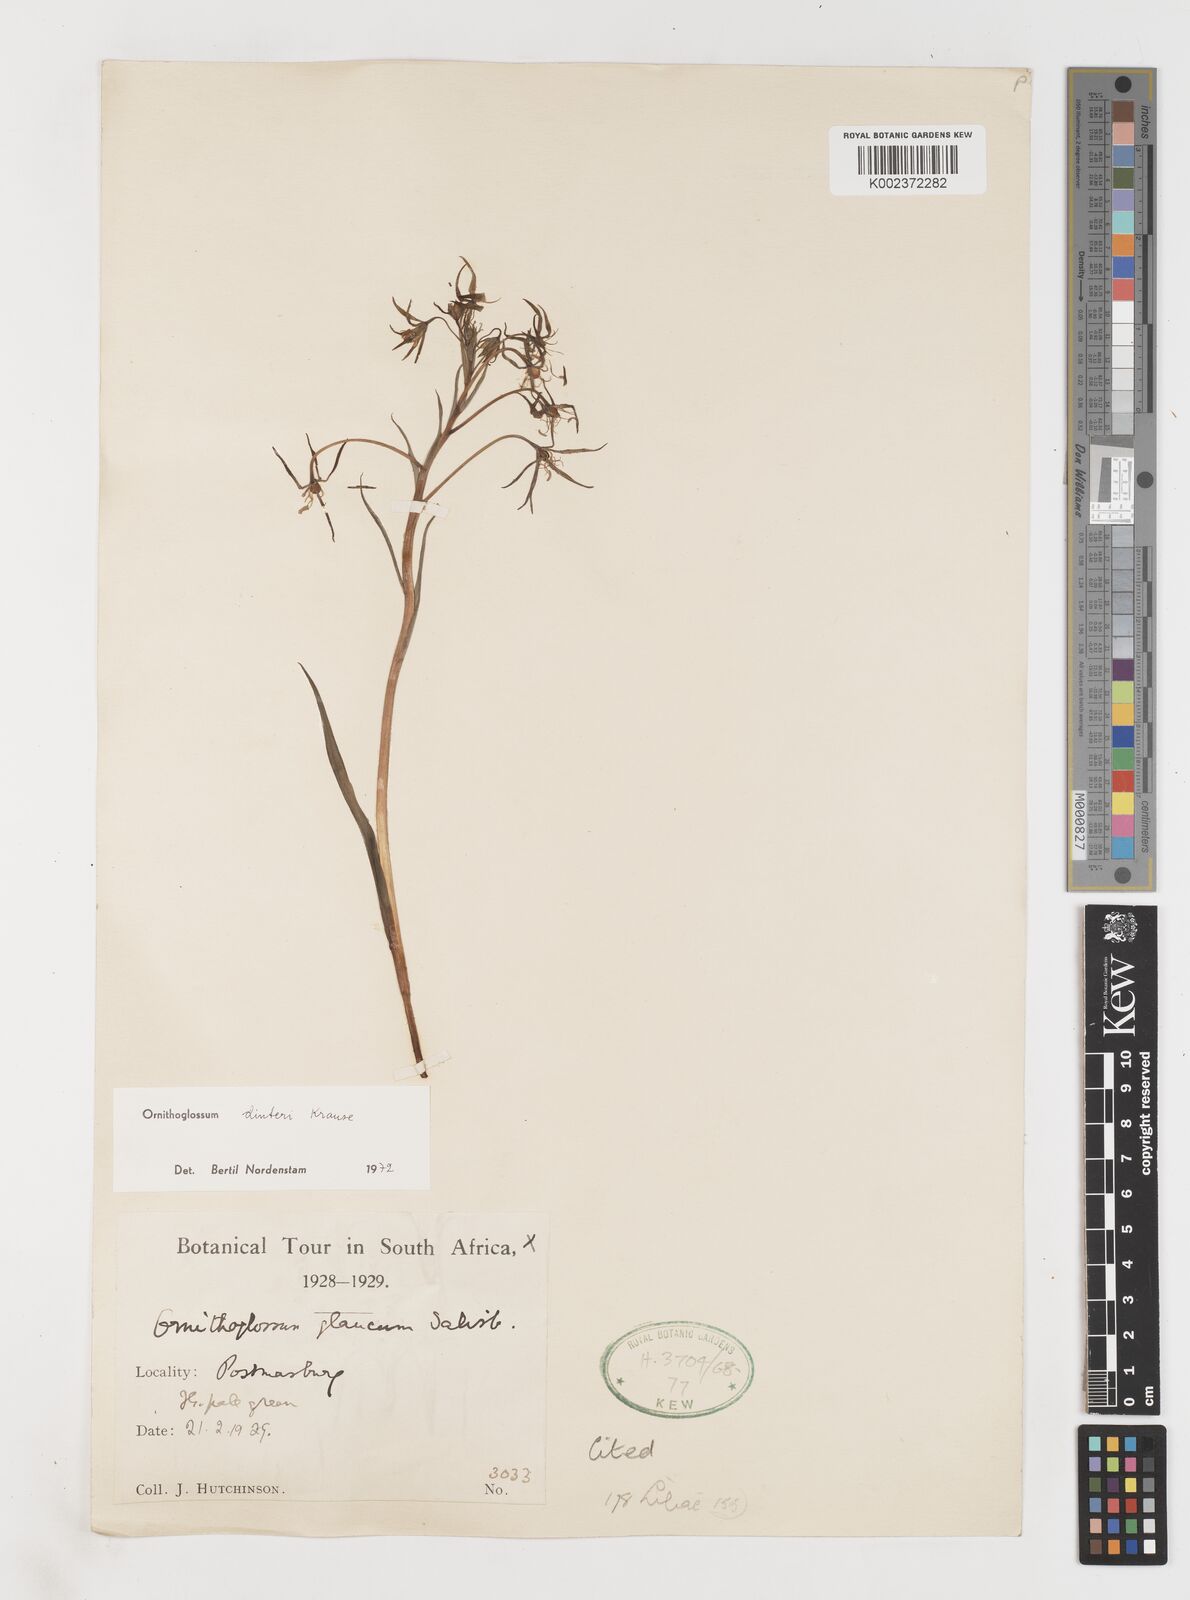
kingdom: Plantae
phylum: Tracheophyta
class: Liliopsida
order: Liliales
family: Colchicaceae
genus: Ornithoglossum
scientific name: Ornithoglossum dinteri
